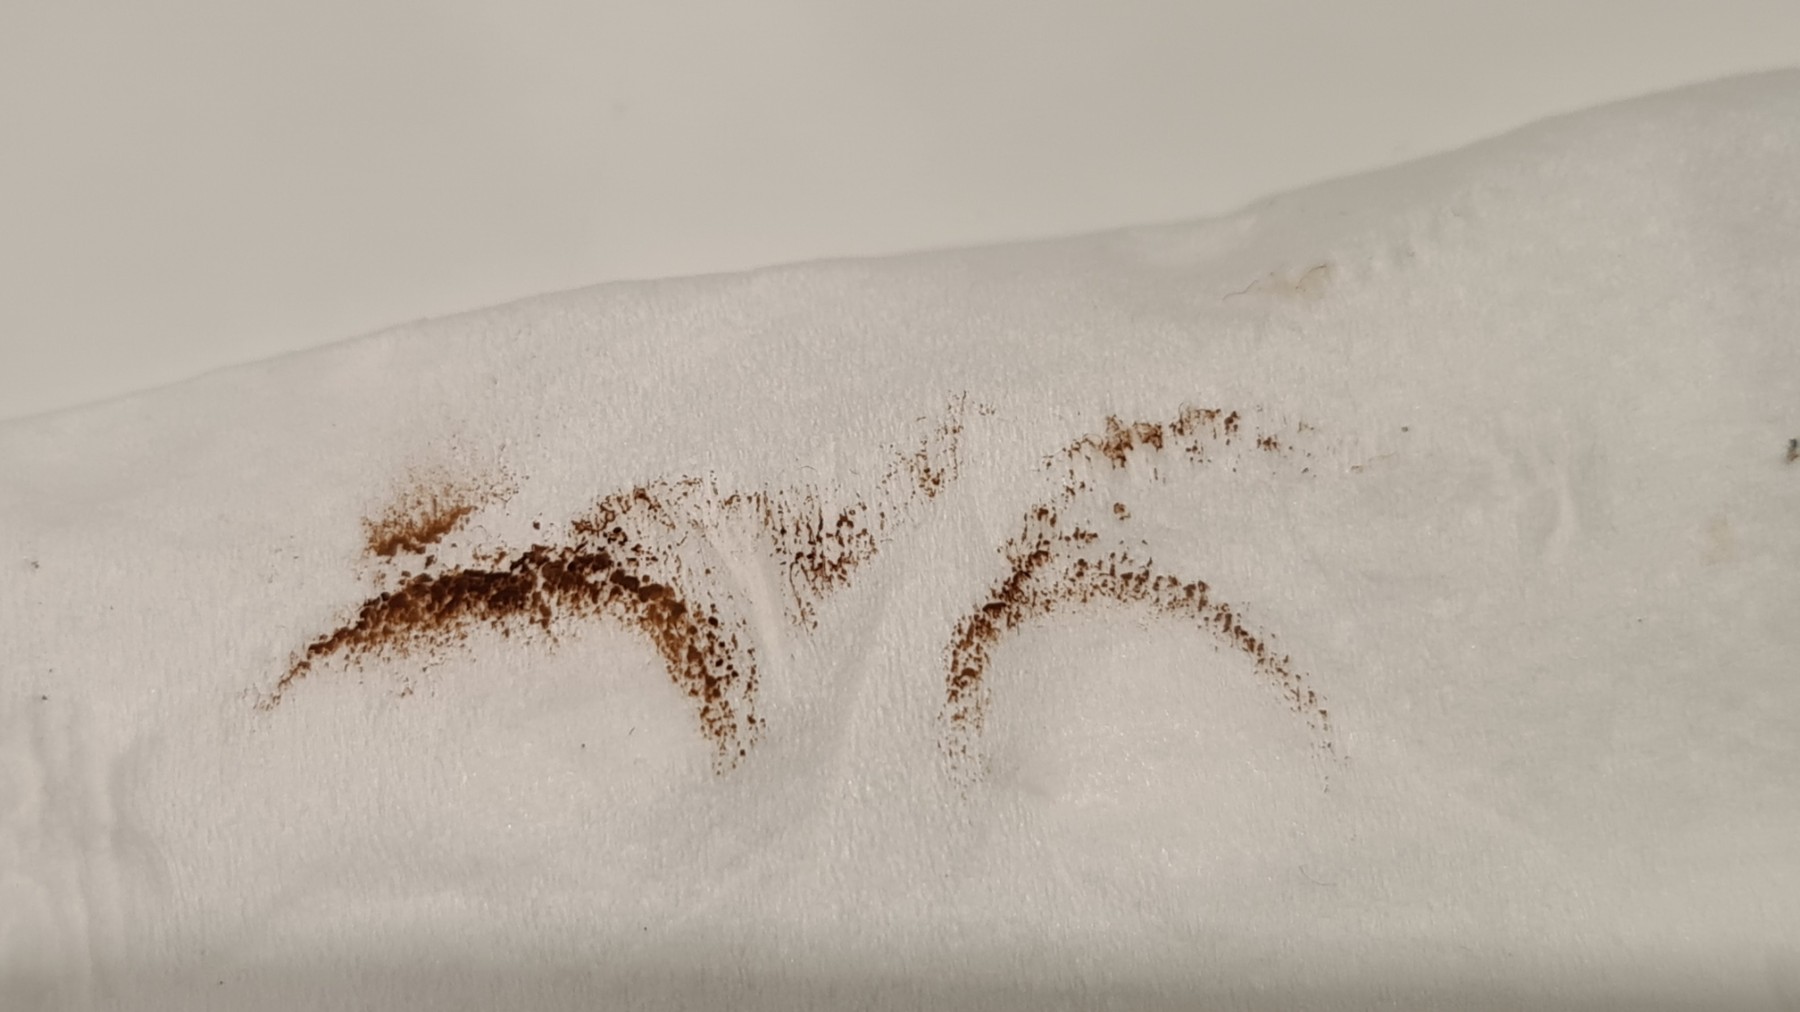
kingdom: Fungi
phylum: Basidiomycota
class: Agaricomycetes
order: Boletales
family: Paxillaceae
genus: Paxillus
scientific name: Paxillus obscurisporus
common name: mahognisporet netbladhat
